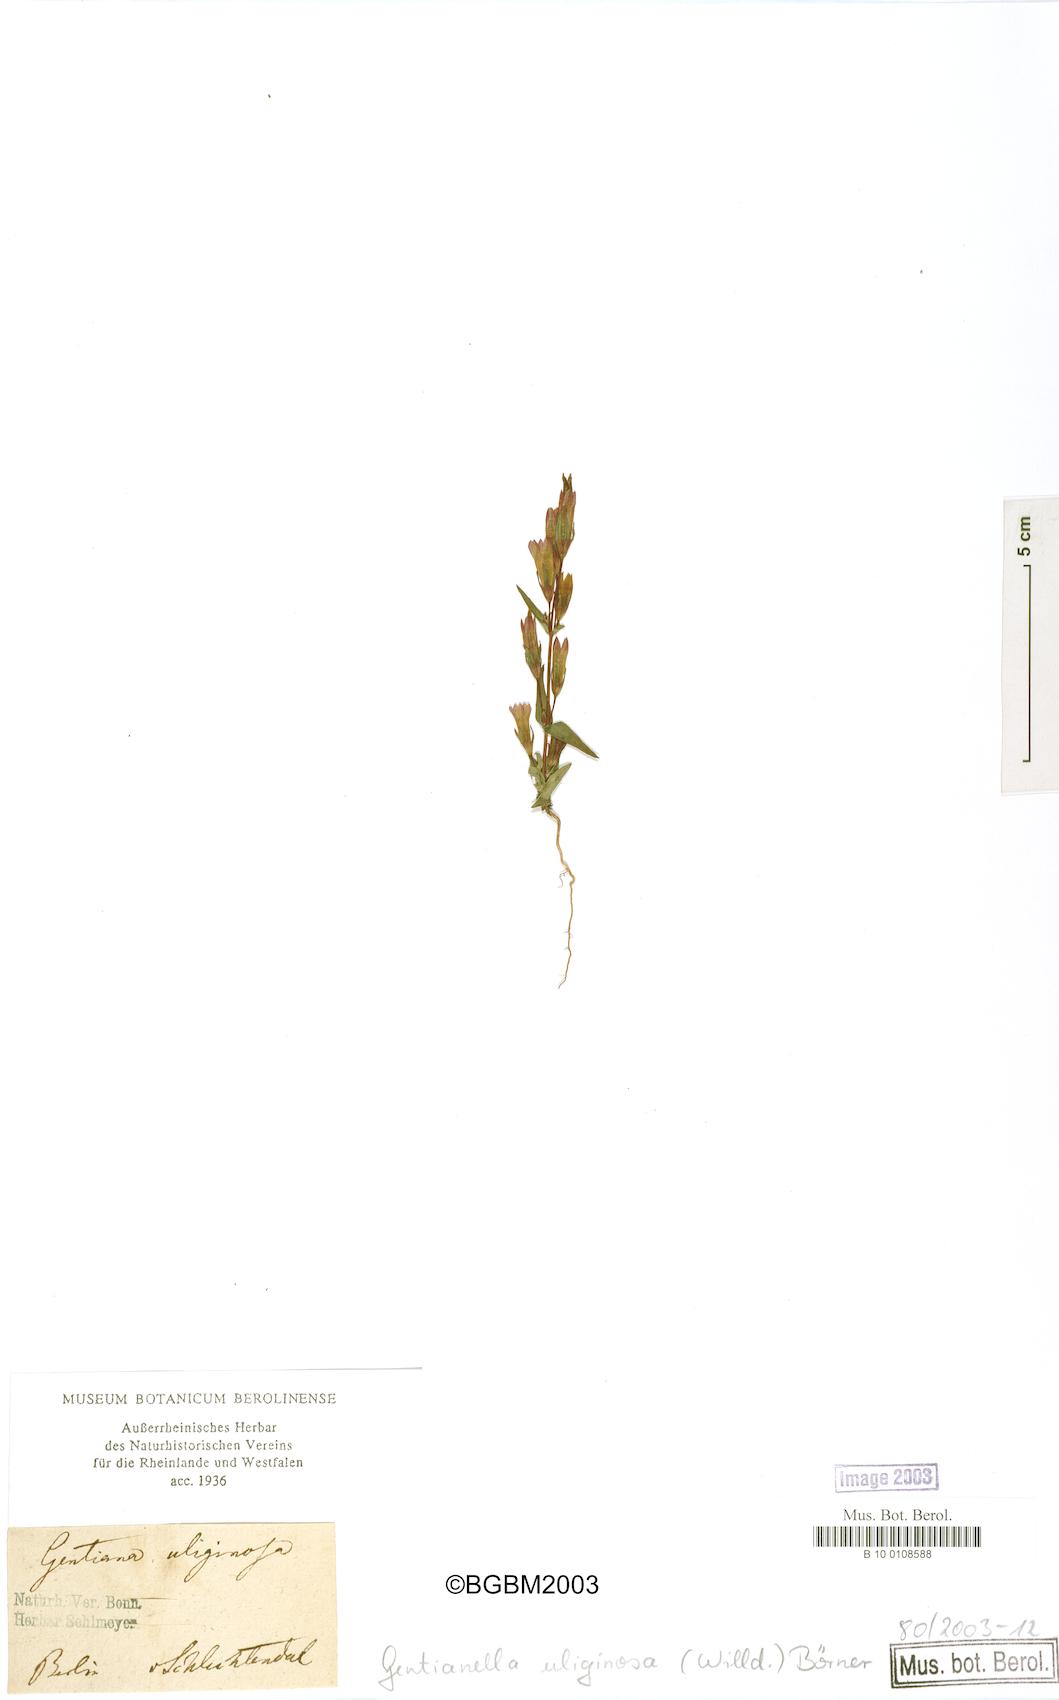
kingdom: Plantae
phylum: Tracheophyta
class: Magnoliopsida
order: Gentianales
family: Gentianaceae
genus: Gentianella
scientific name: Gentianella uliginosa
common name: Dune gentian
